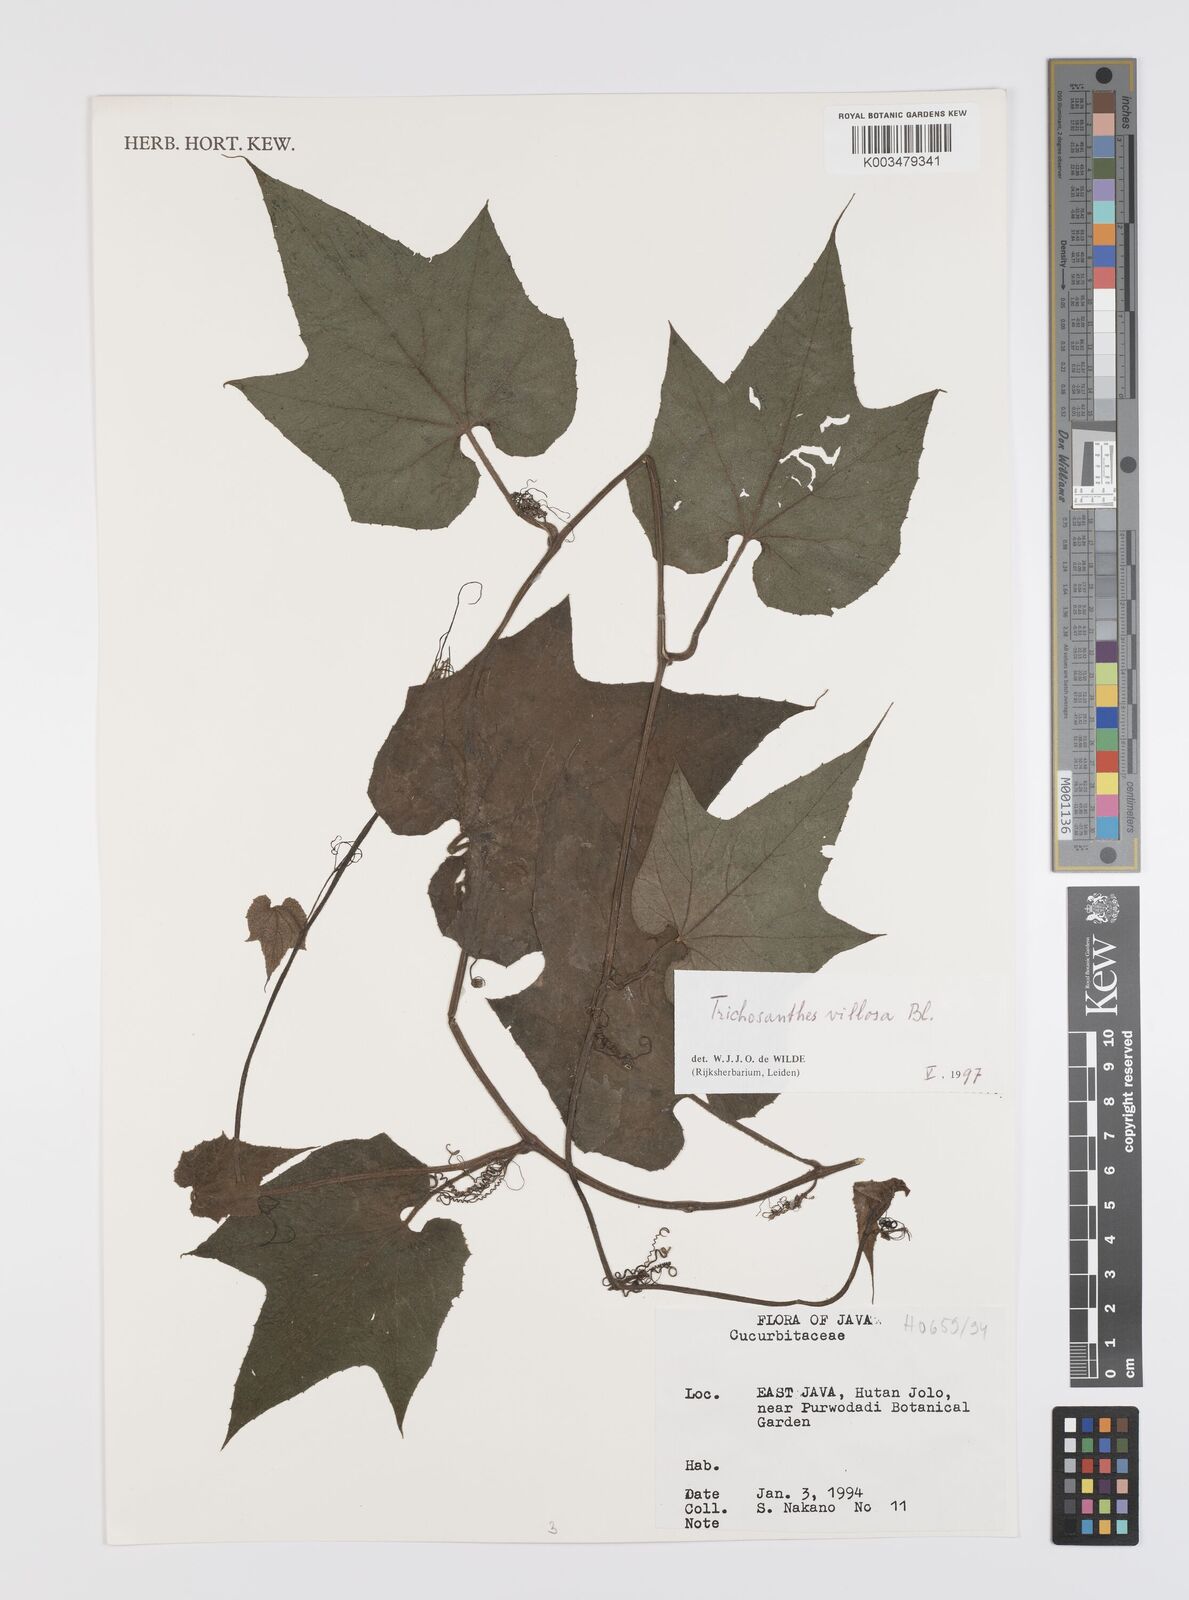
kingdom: Plantae
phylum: Tracheophyta
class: Magnoliopsida
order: Cucurbitales
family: Cucurbitaceae
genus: Trichosanthes
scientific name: Trichosanthes villosa
